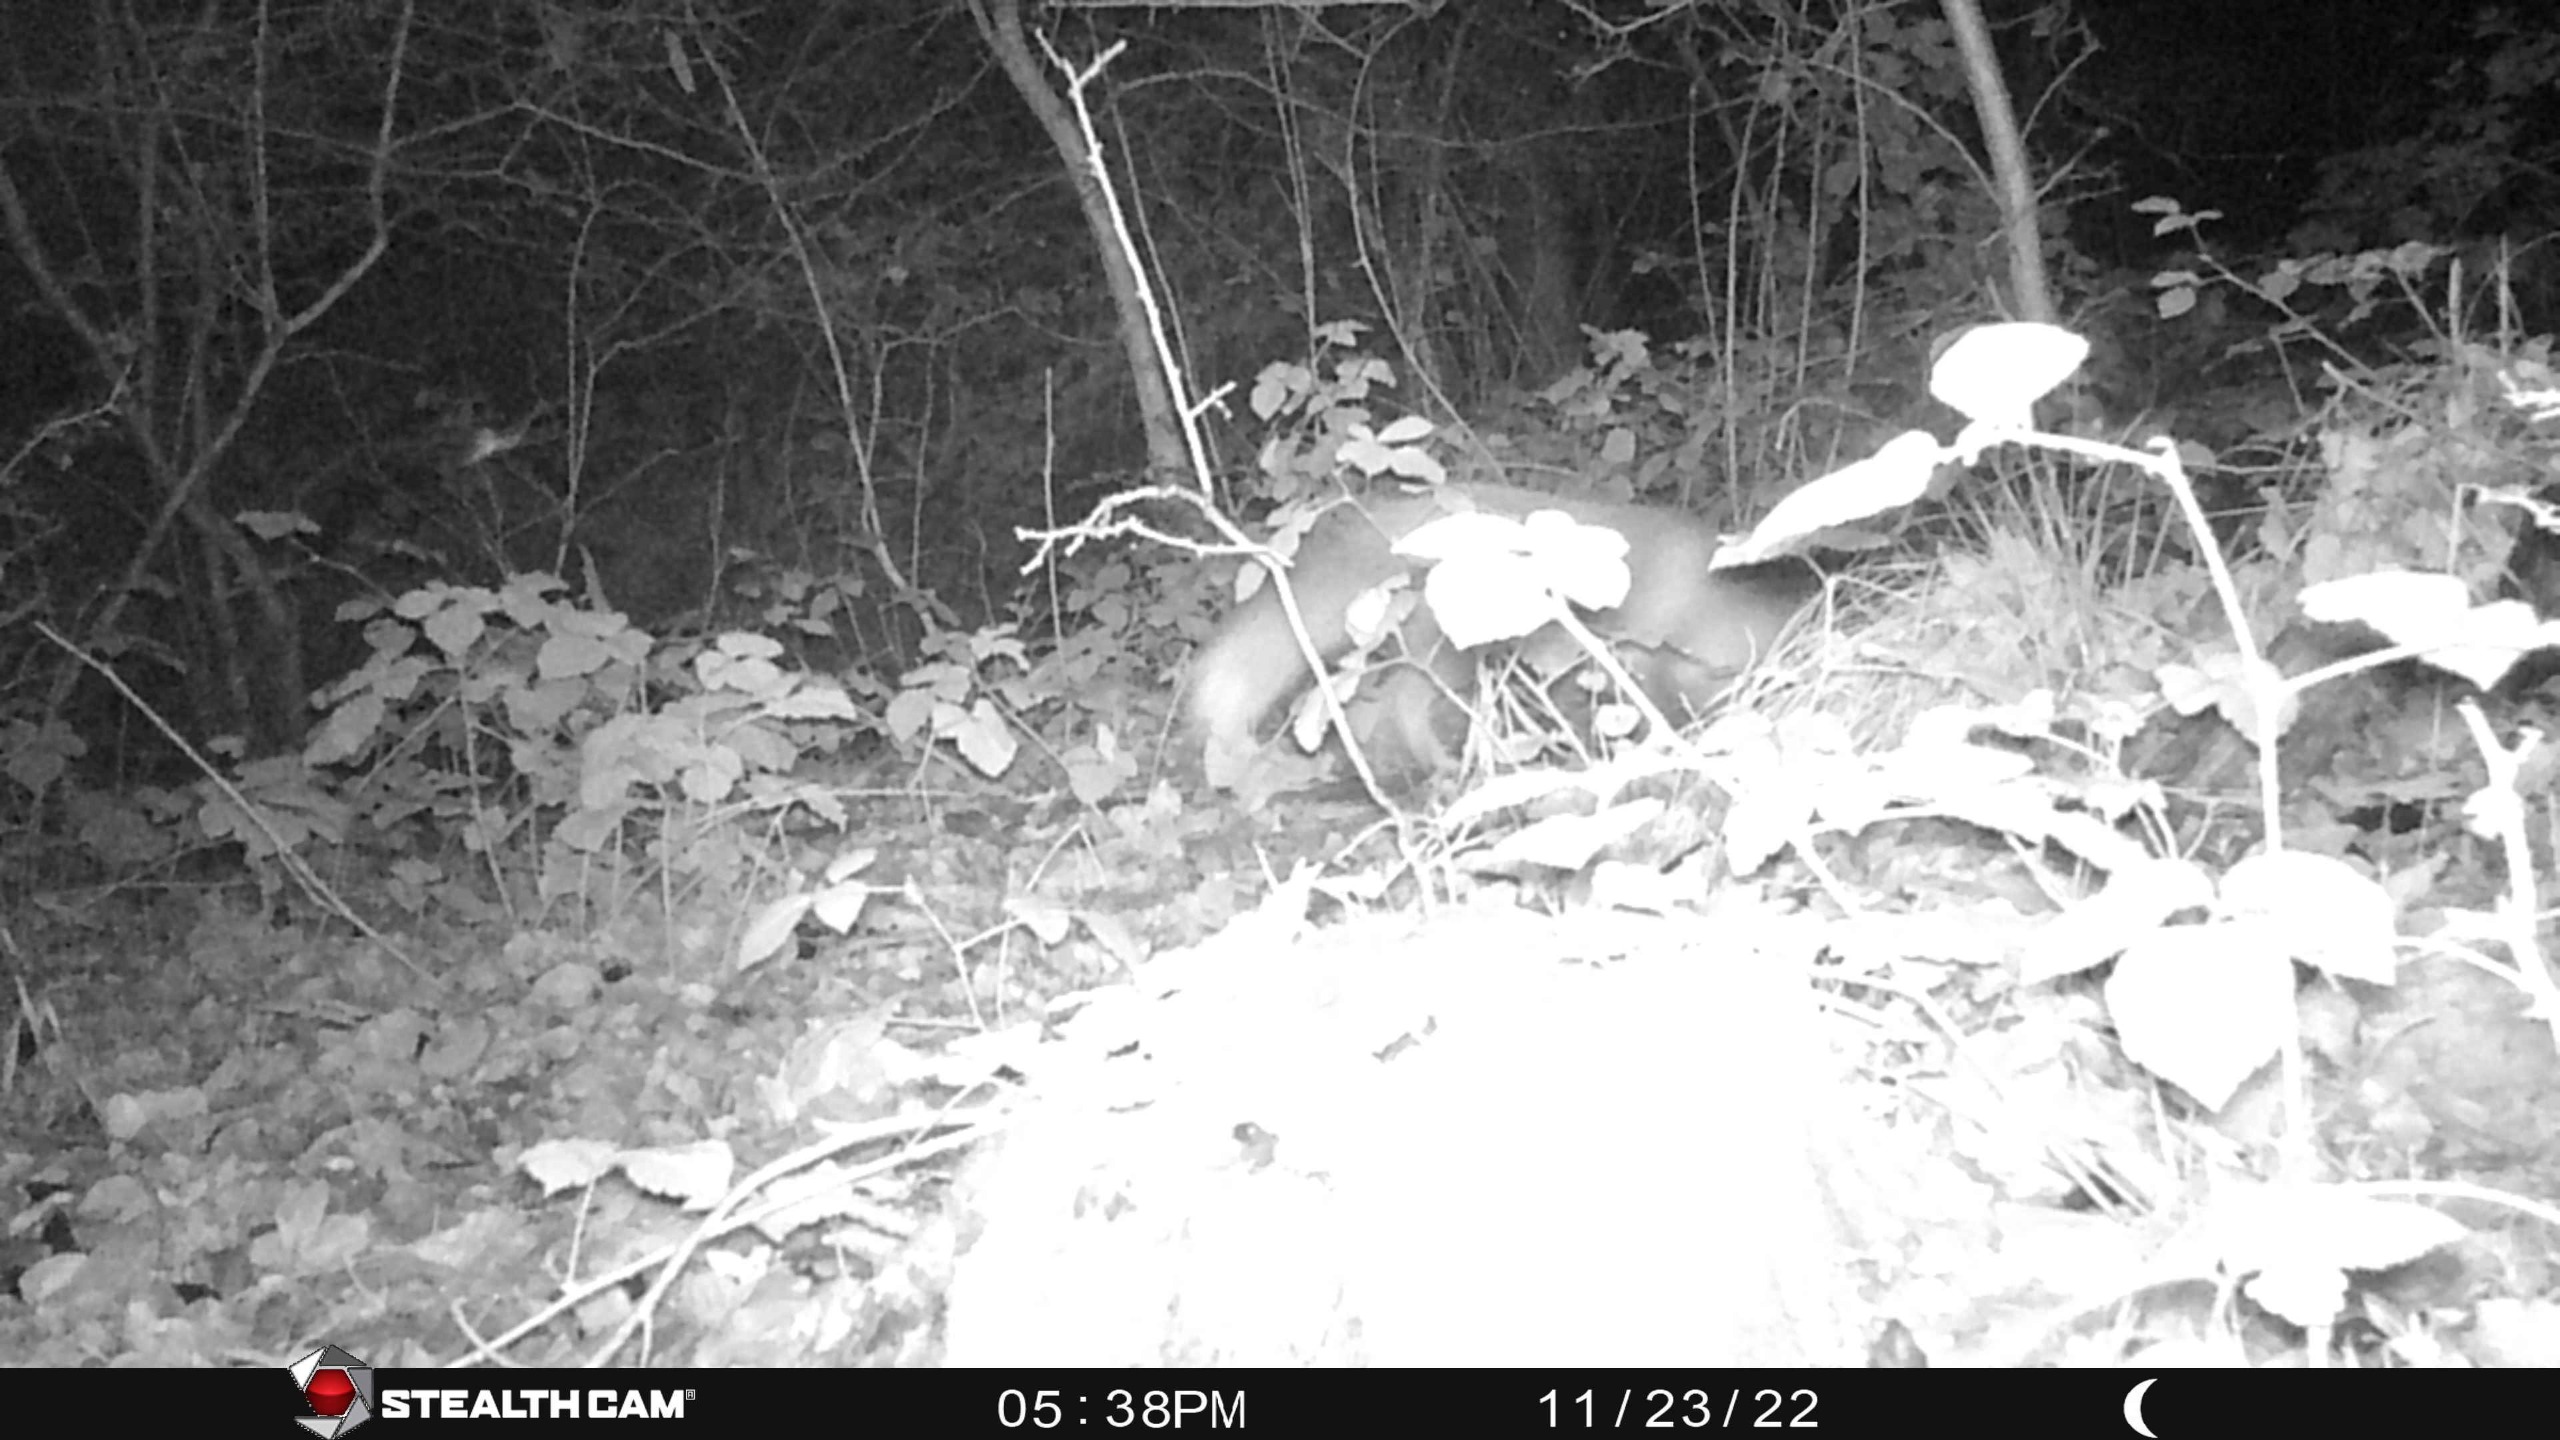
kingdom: Animalia
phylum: Chordata
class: Mammalia
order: Carnivora
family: Canidae
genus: Vulpes
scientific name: Vulpes vulpes
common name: Ræv
